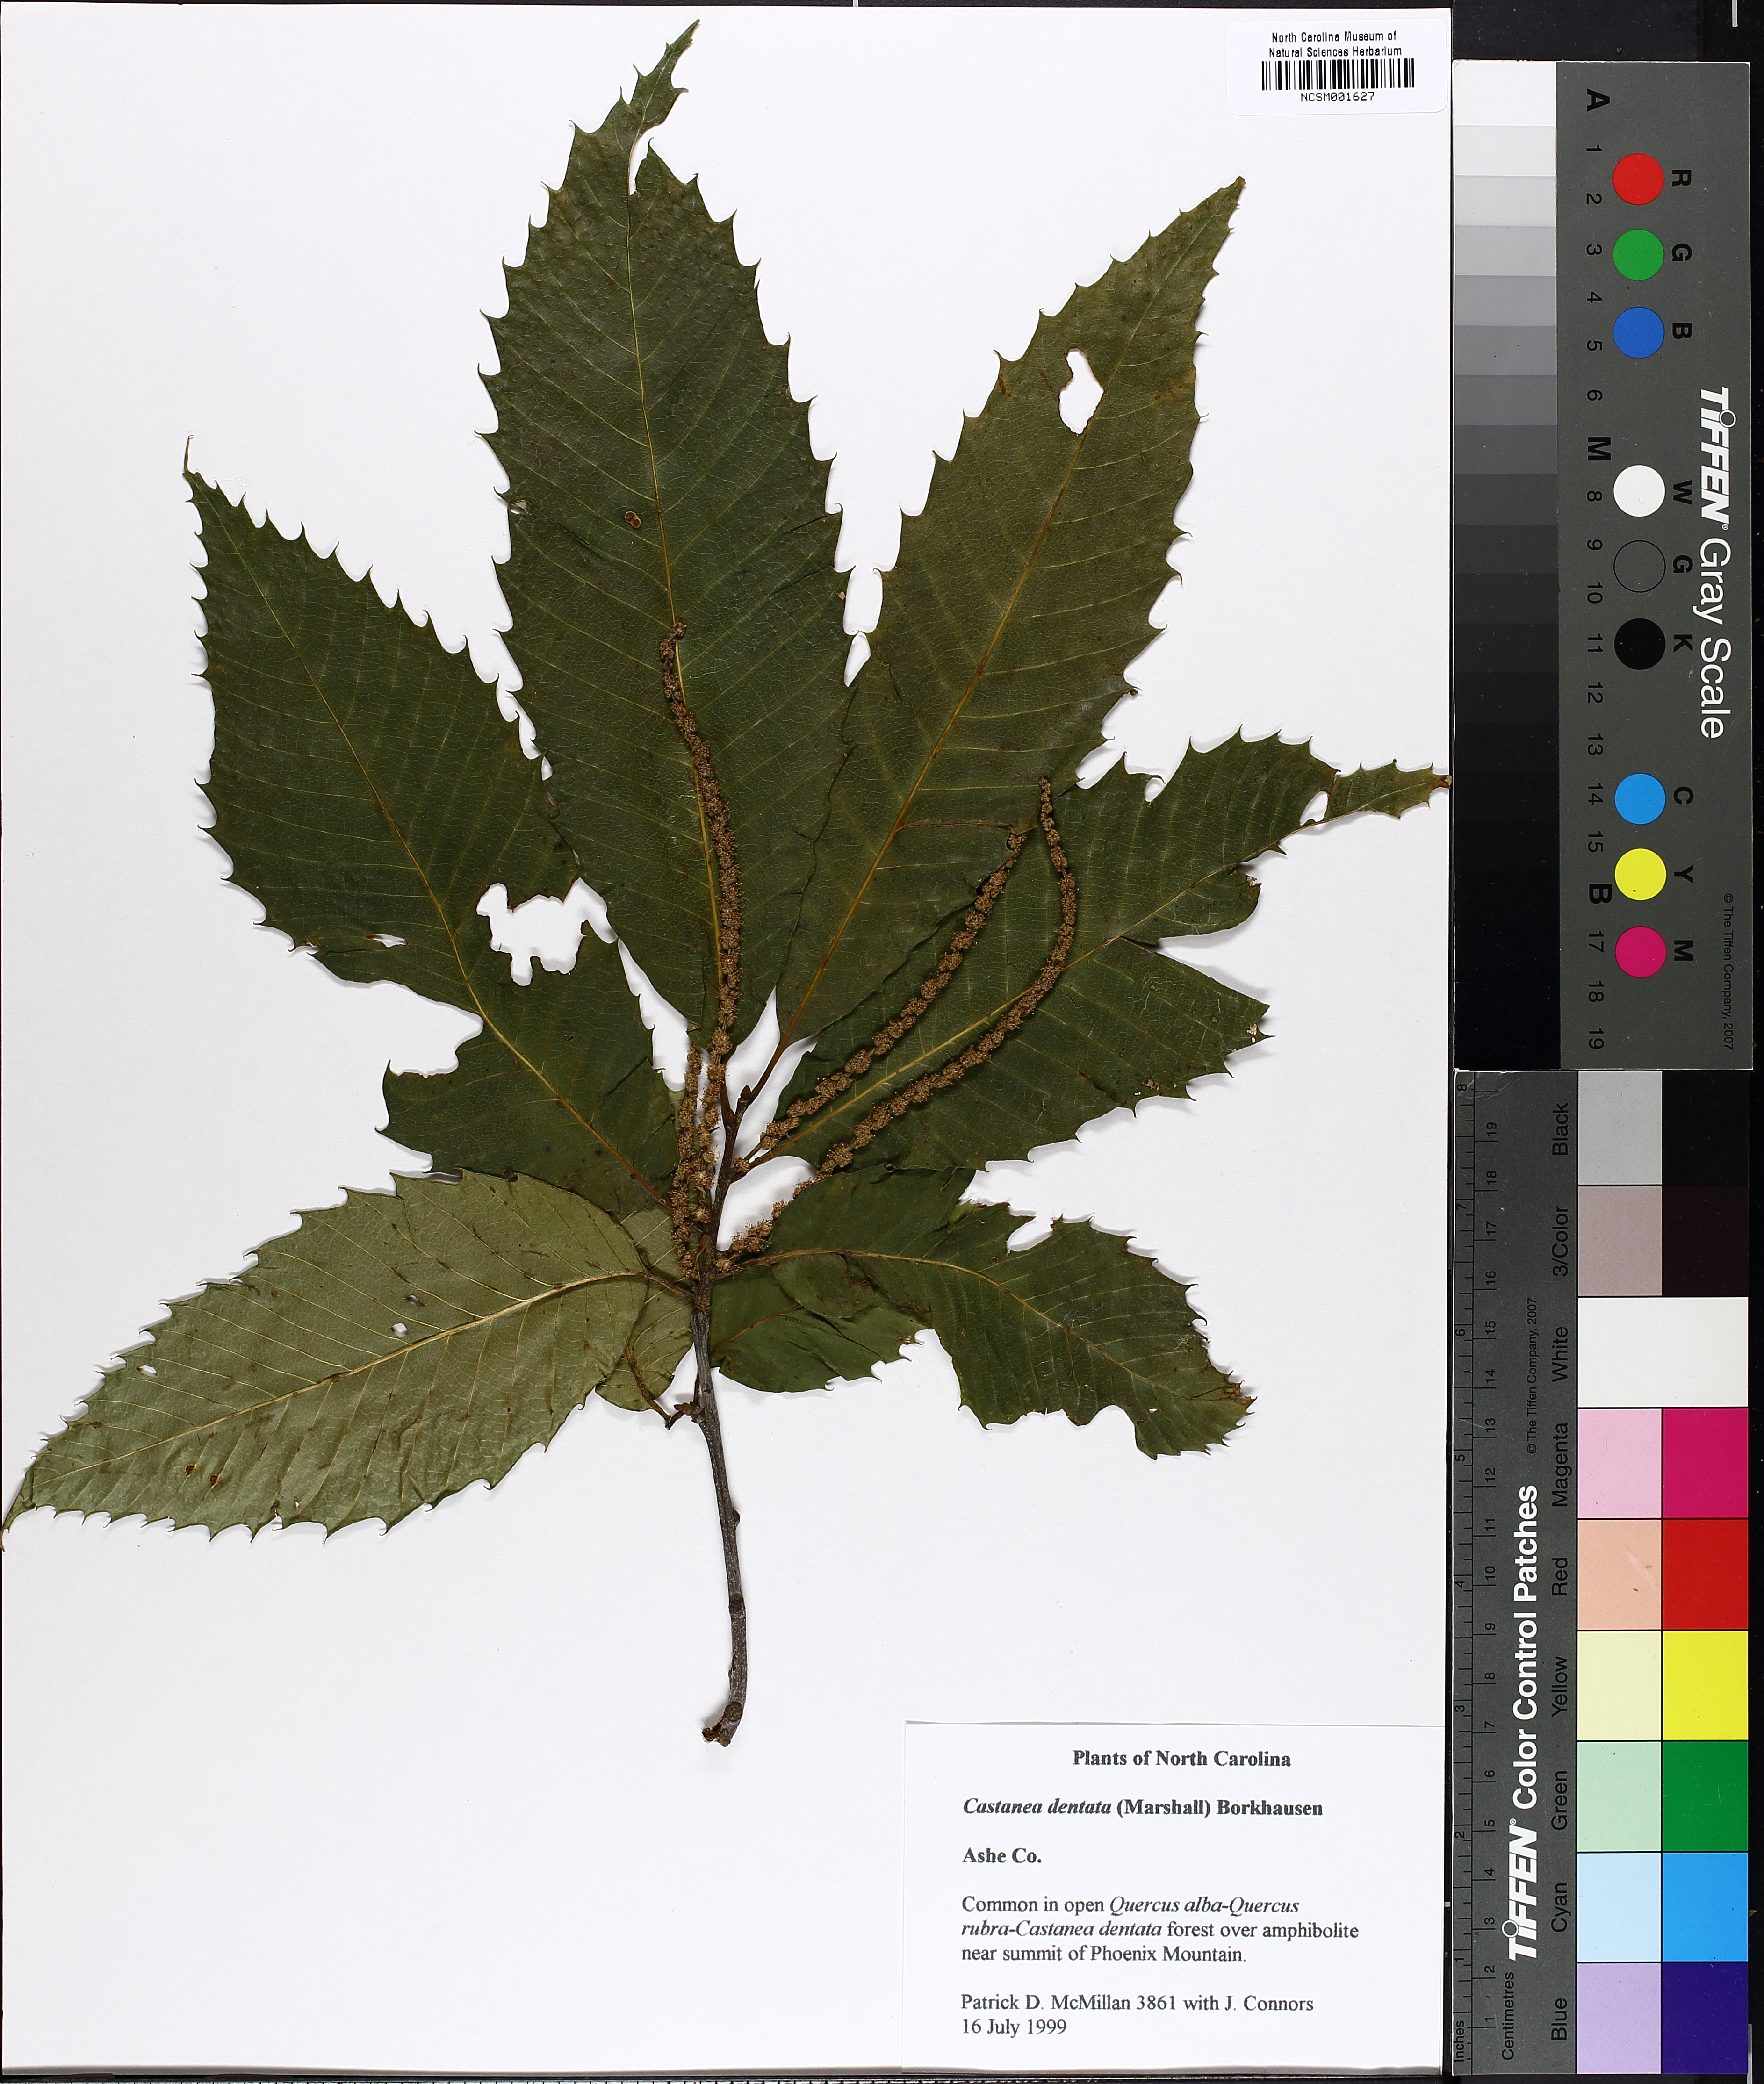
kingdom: Plantae
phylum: Tracheophyta
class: Magnoliopsida
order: Fagales
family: Fagaceae
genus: Castanea
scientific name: Castanea dentata
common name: American chestnut
